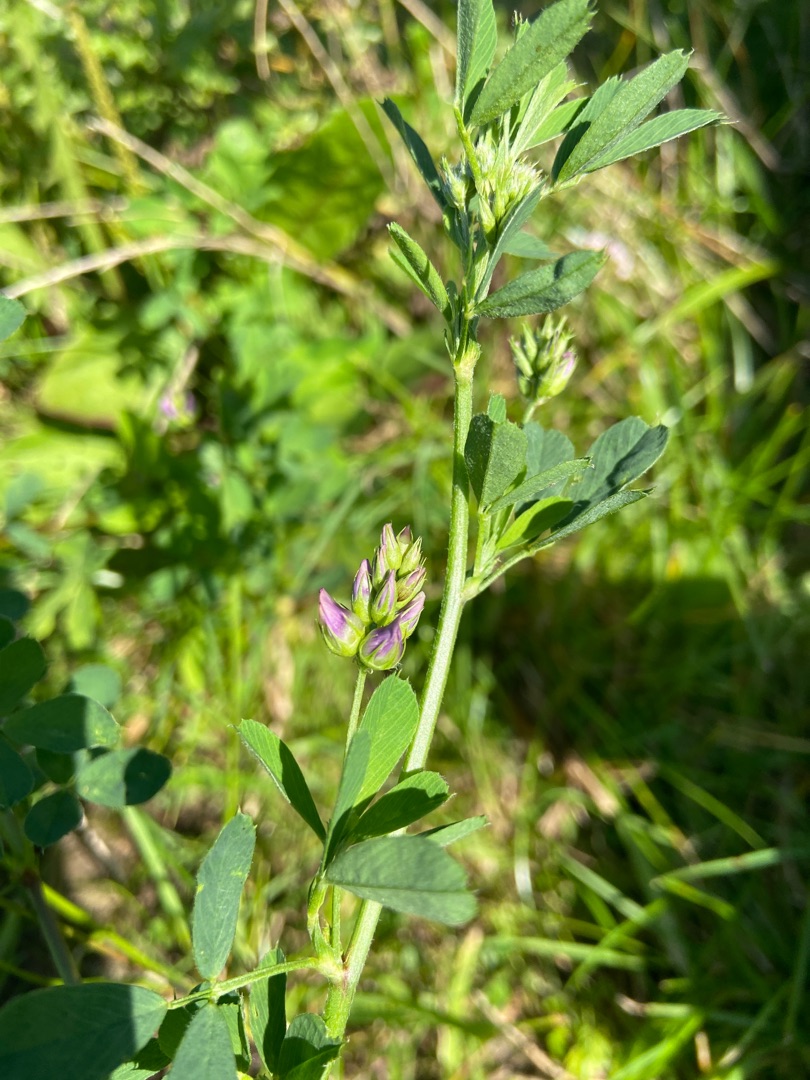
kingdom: Plantae
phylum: Tracheophyta
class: Magnoliopsida
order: Fabales
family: Fabaceae
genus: Medicago
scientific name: Medicago sativa
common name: Lucerne
